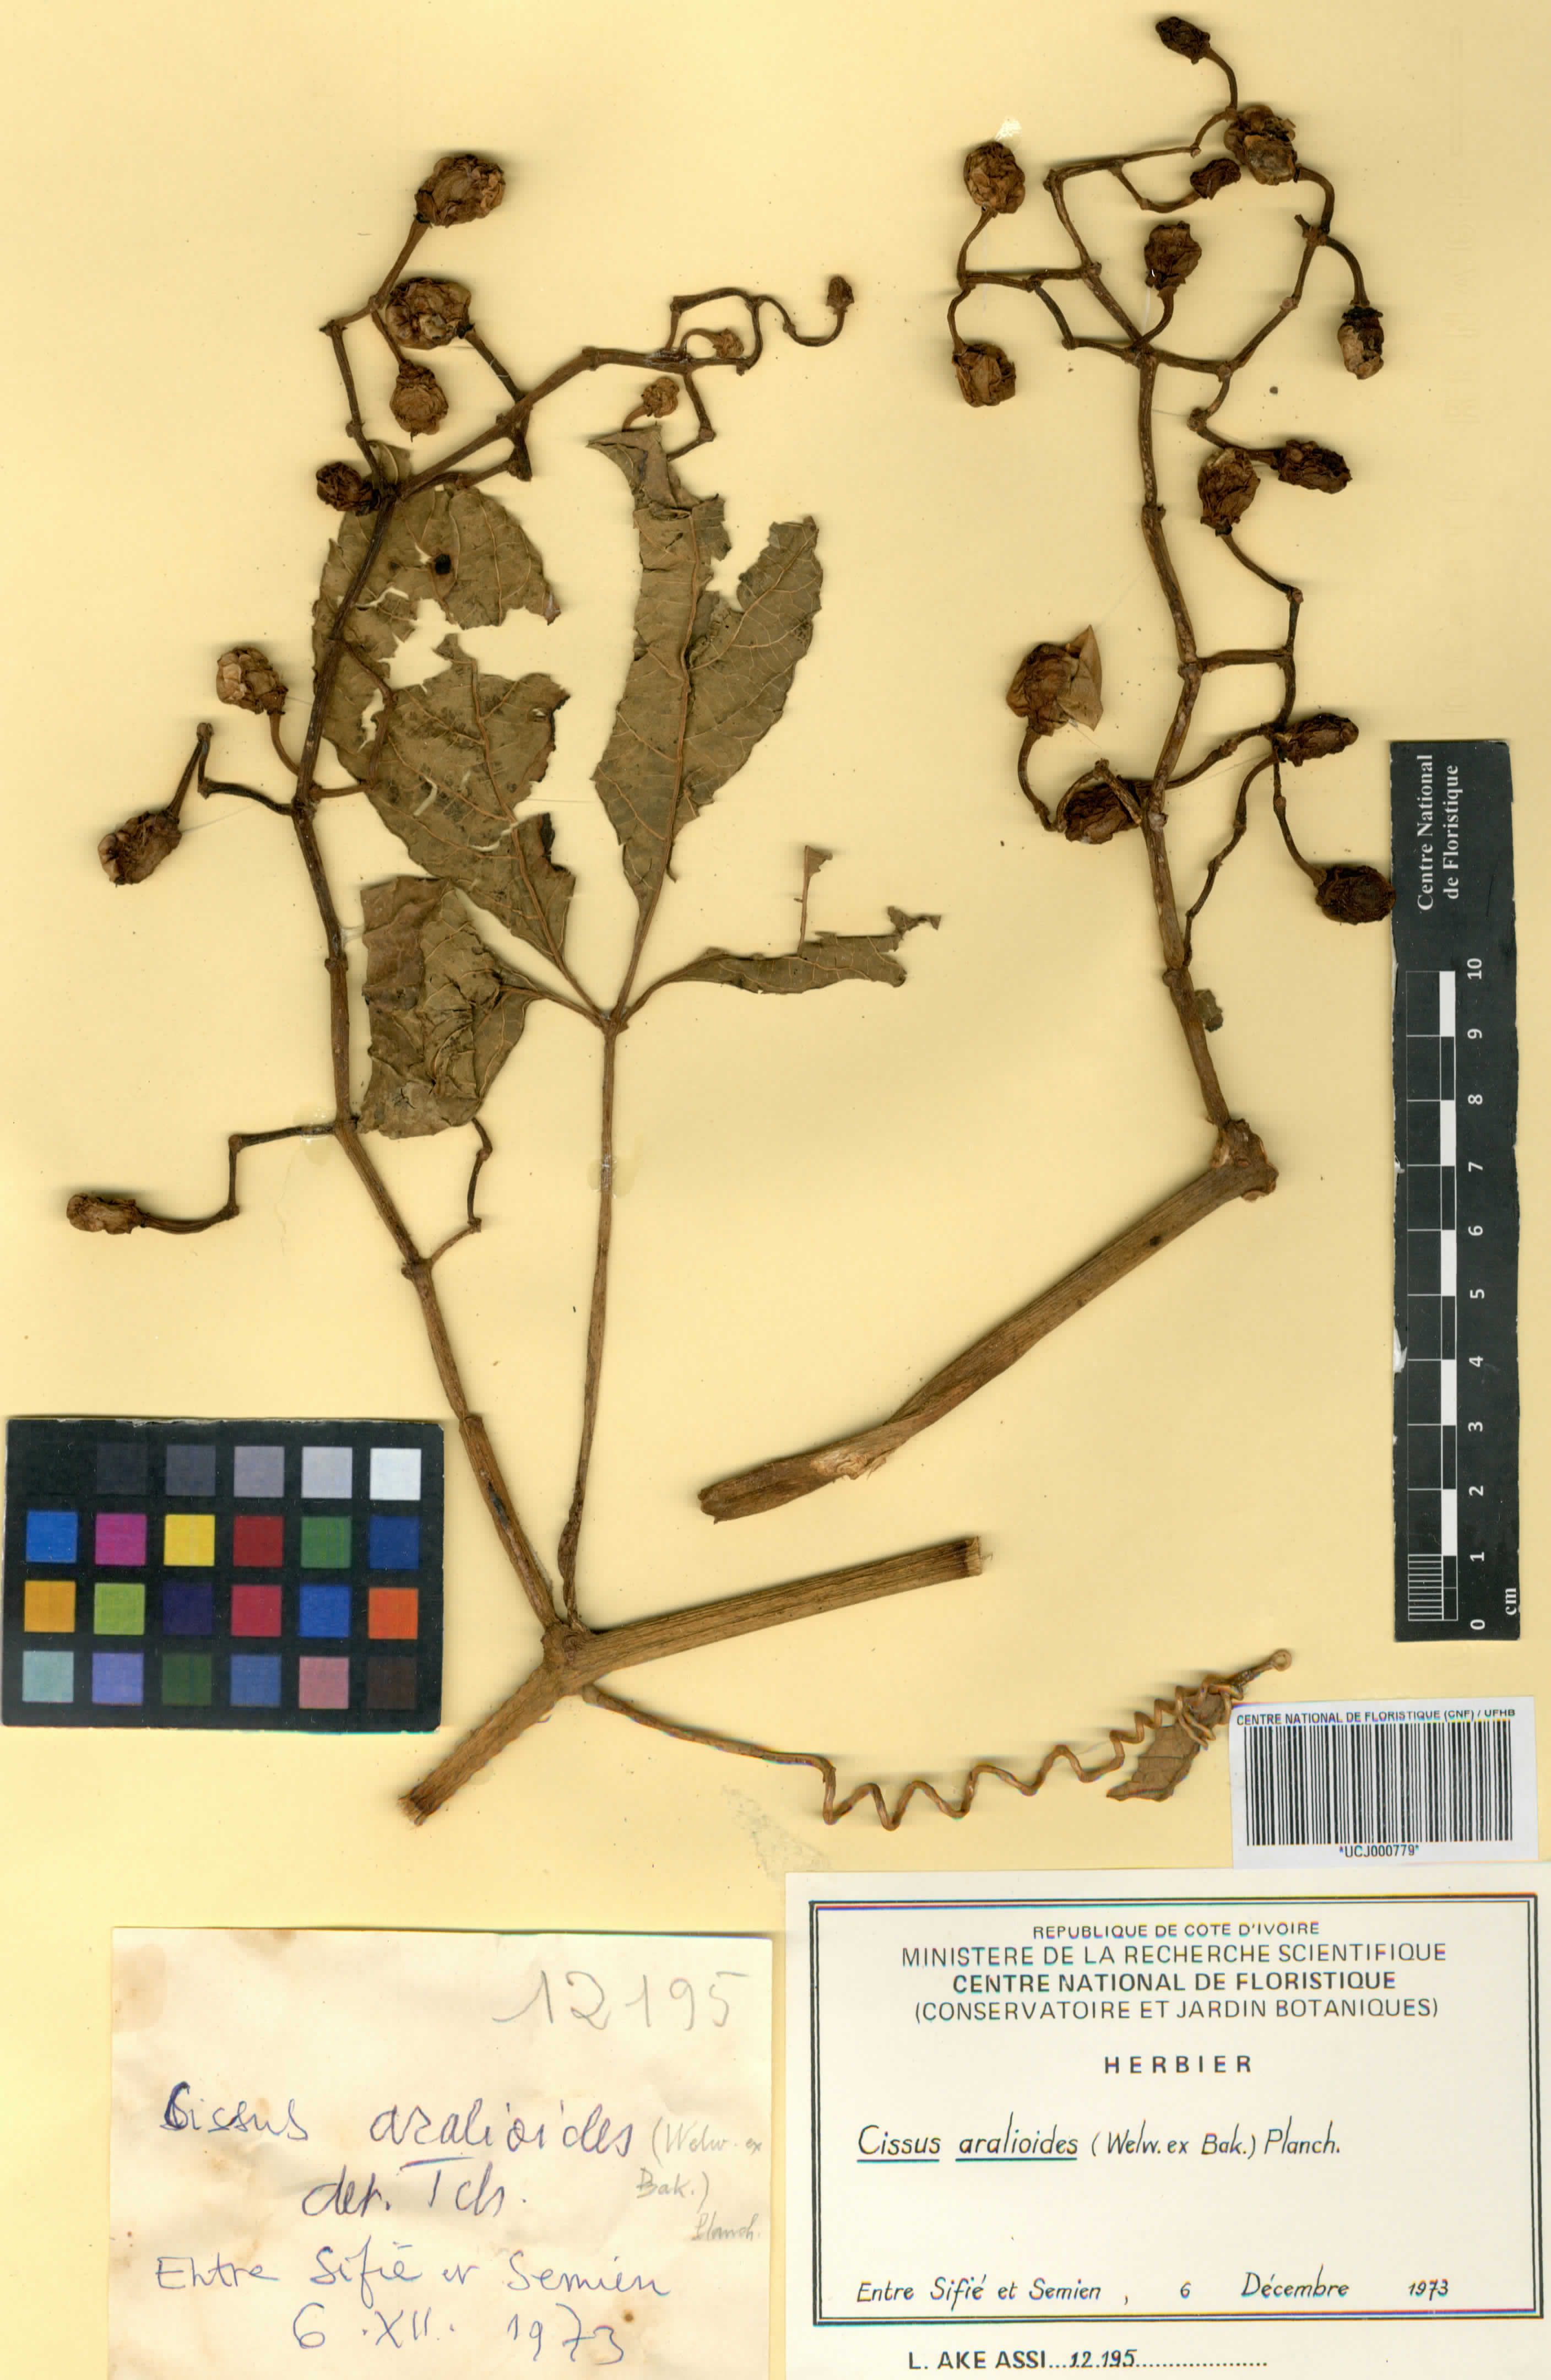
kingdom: Plantae
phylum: Tracheophyta
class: Magnoliopsida
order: Vitales
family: Vitaceae
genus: Cissus
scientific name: Cissus aralioides
